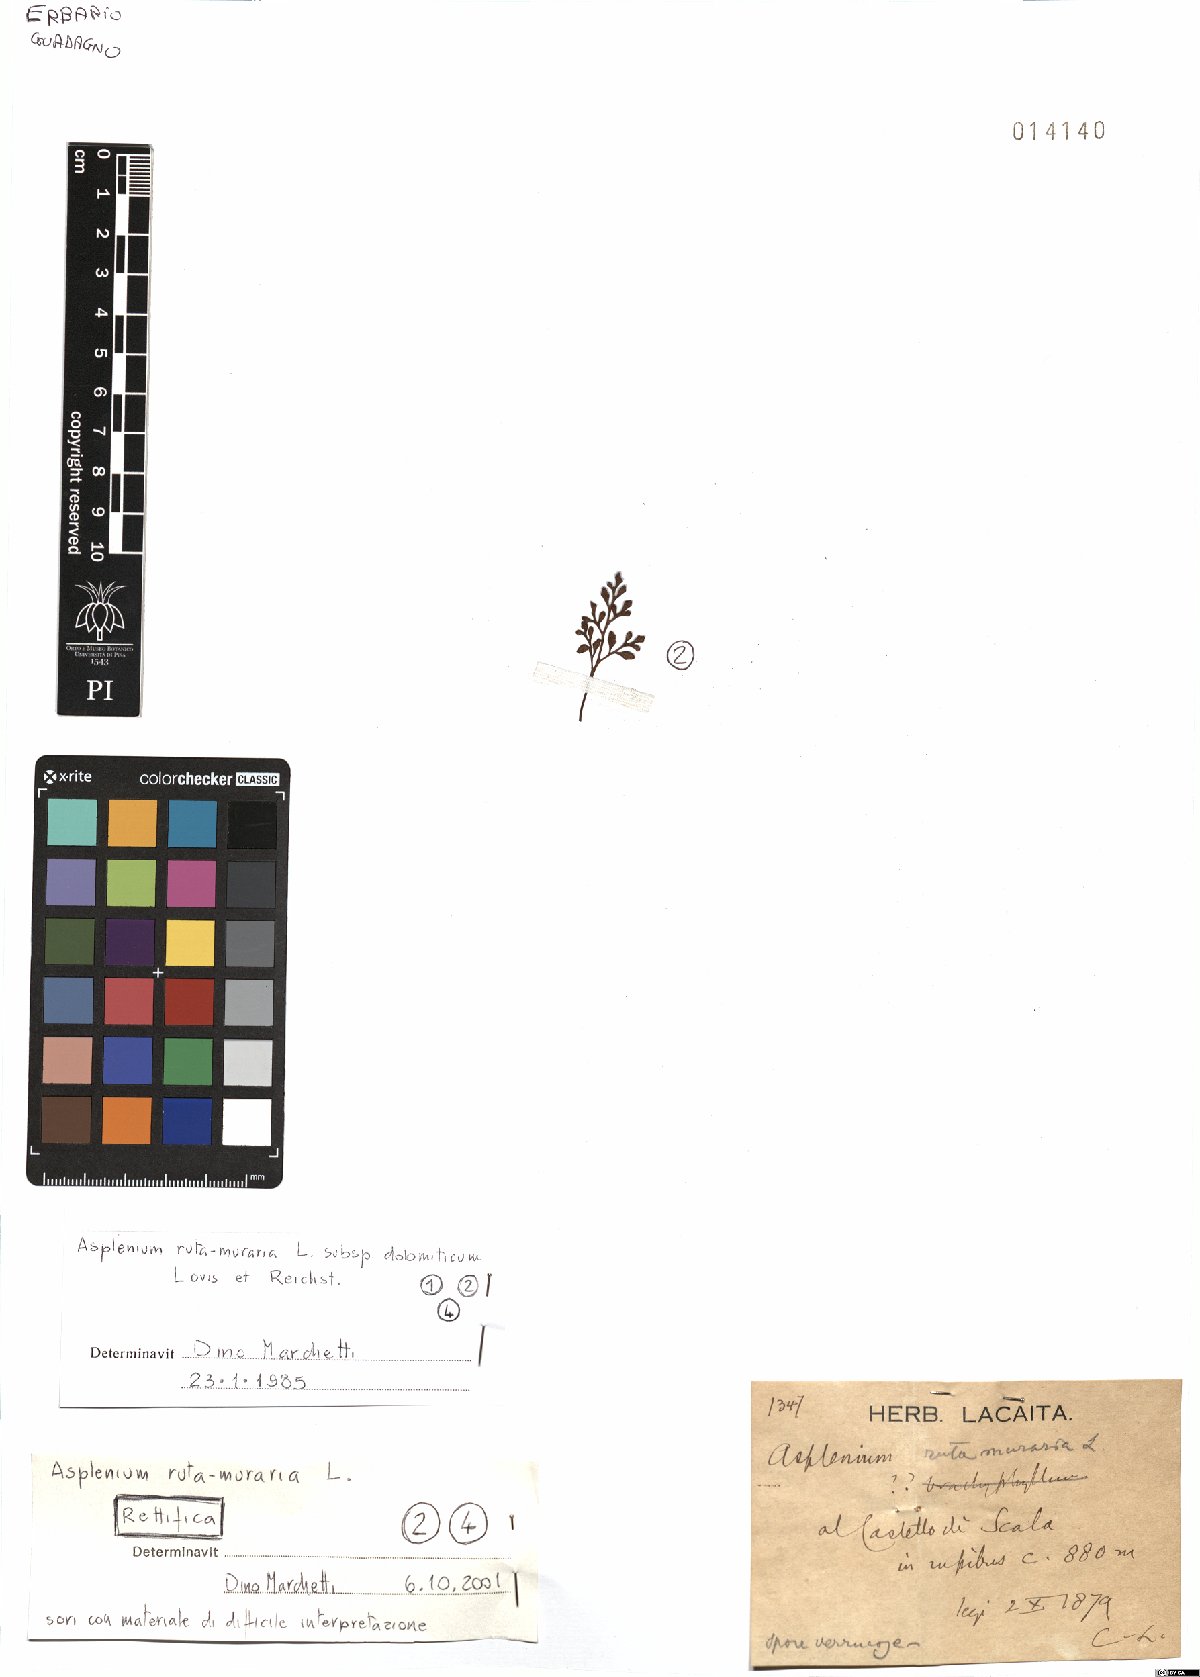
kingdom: Plantae
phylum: Tracheophyta
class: Polypodiopsida
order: Polypodiales
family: Aspleniaceae
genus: Asplenium
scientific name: Asplenium ruta-muraria
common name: Wall-rue
